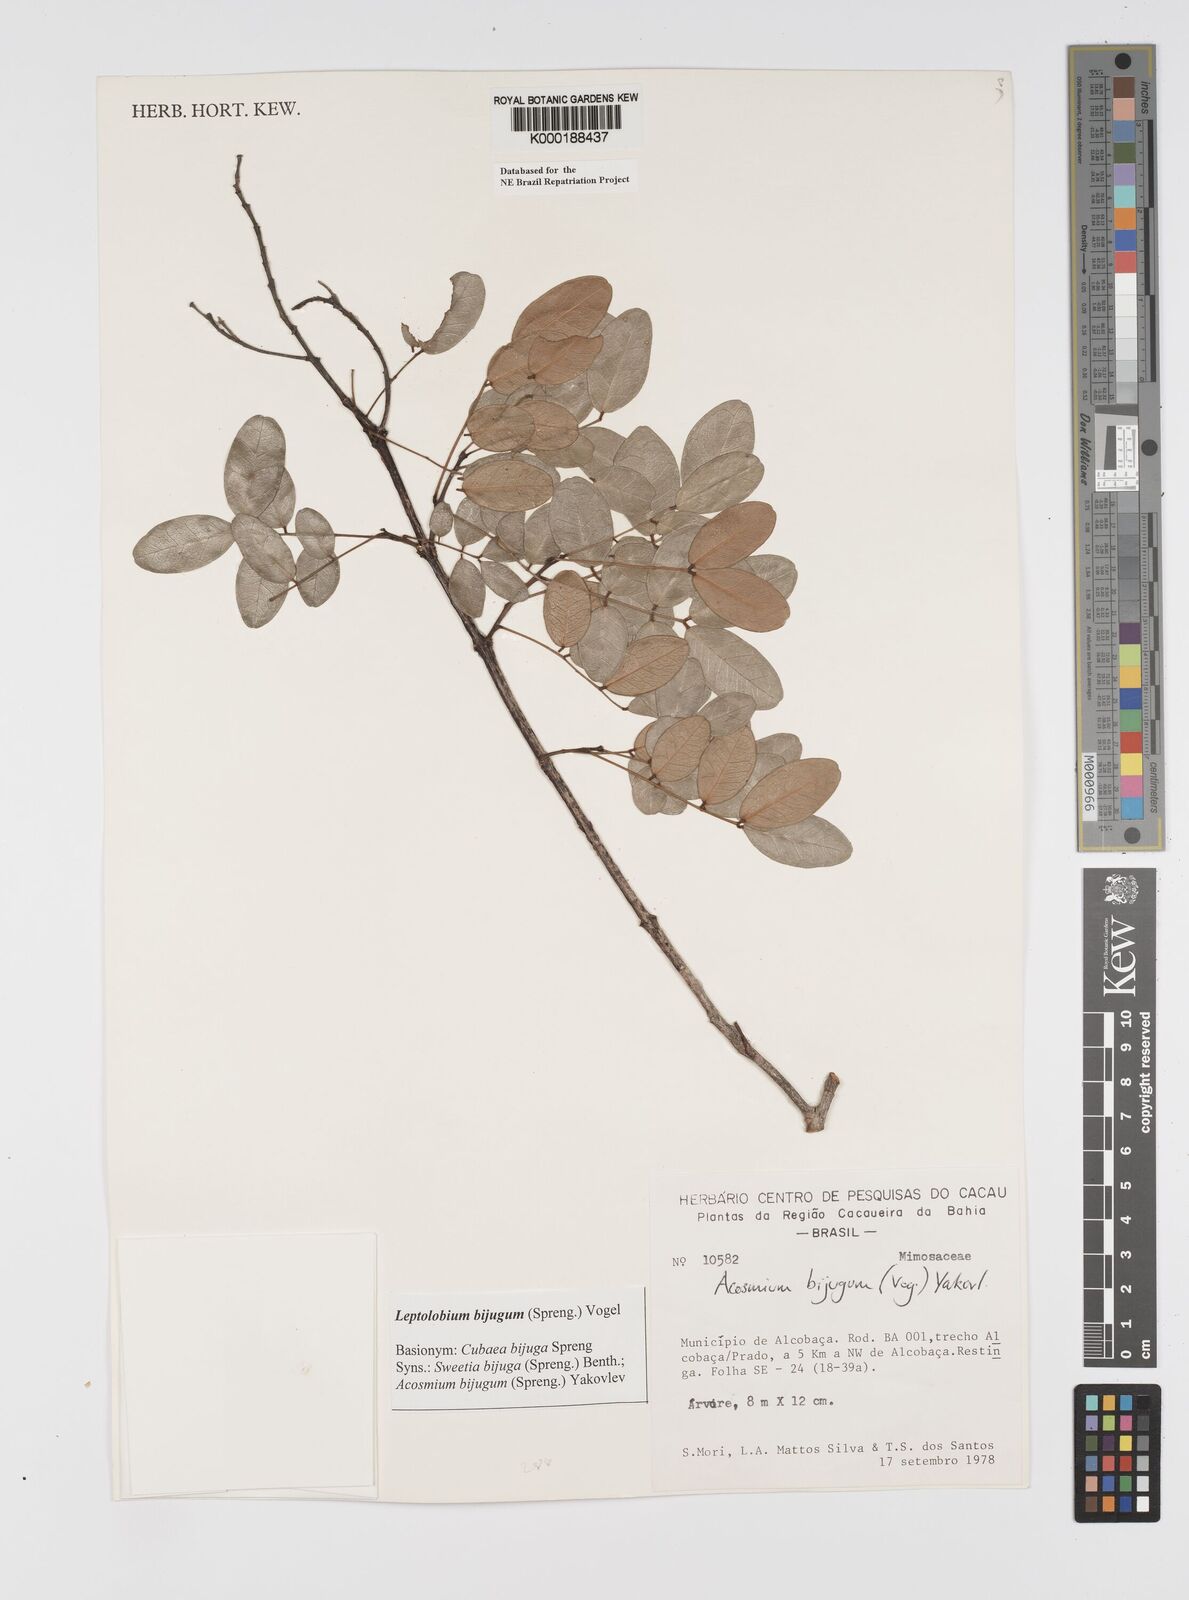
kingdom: Plantae
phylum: Tracheophyta
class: Magnoliopsida
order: Fabales
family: Fabaceae
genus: Leptolobium
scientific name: Leptolobium bijugum
